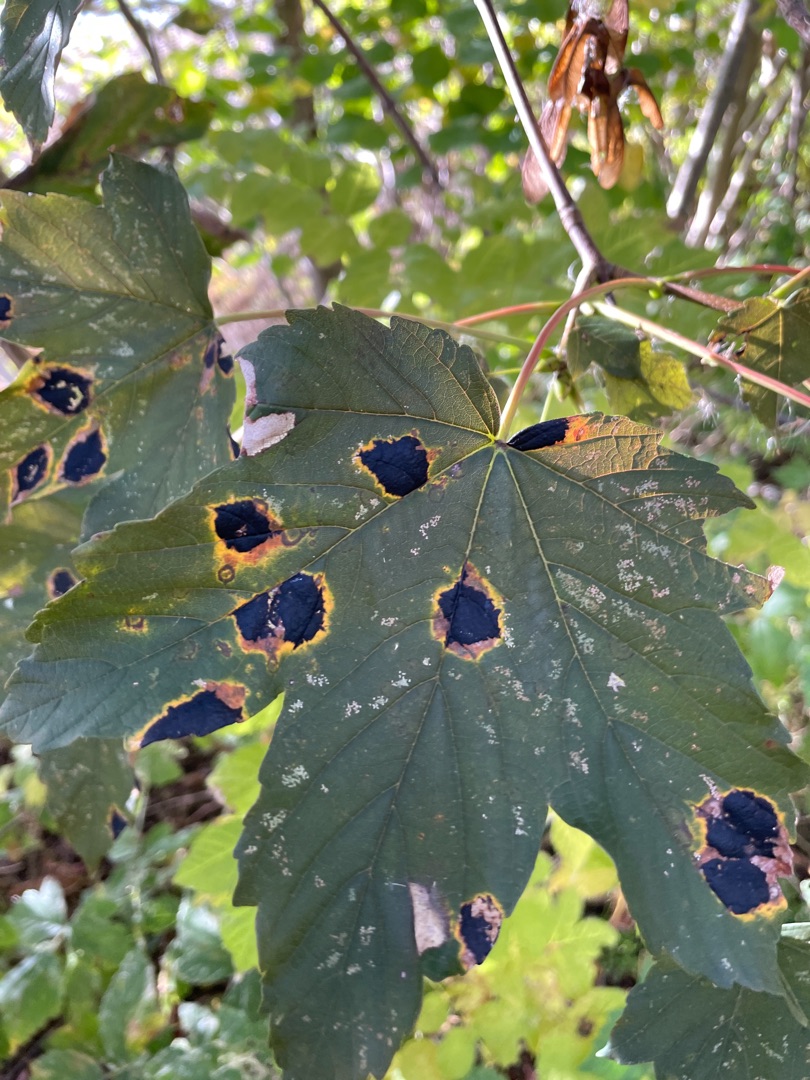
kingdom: Fungi
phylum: Ascomycota
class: Leotiomycetes
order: Rhytismatales
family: Rhytismataceae
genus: Rhytisma
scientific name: Rhytisma acerinum
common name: Ahorn-rynkeplet
